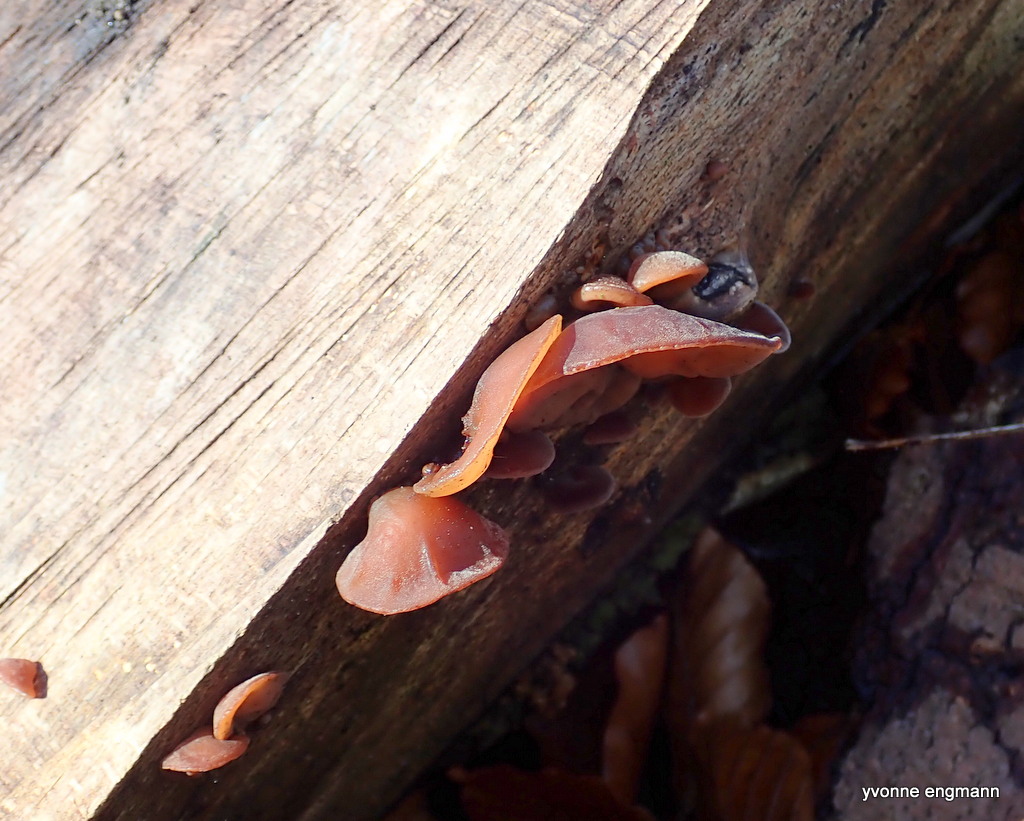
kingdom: Fungi
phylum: Basidiomycota
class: Agaricomycetes
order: Auriculariales
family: Auriculariaceae
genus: Auricularia
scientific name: Auricularia auricula-judae
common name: almindelig judasøre
